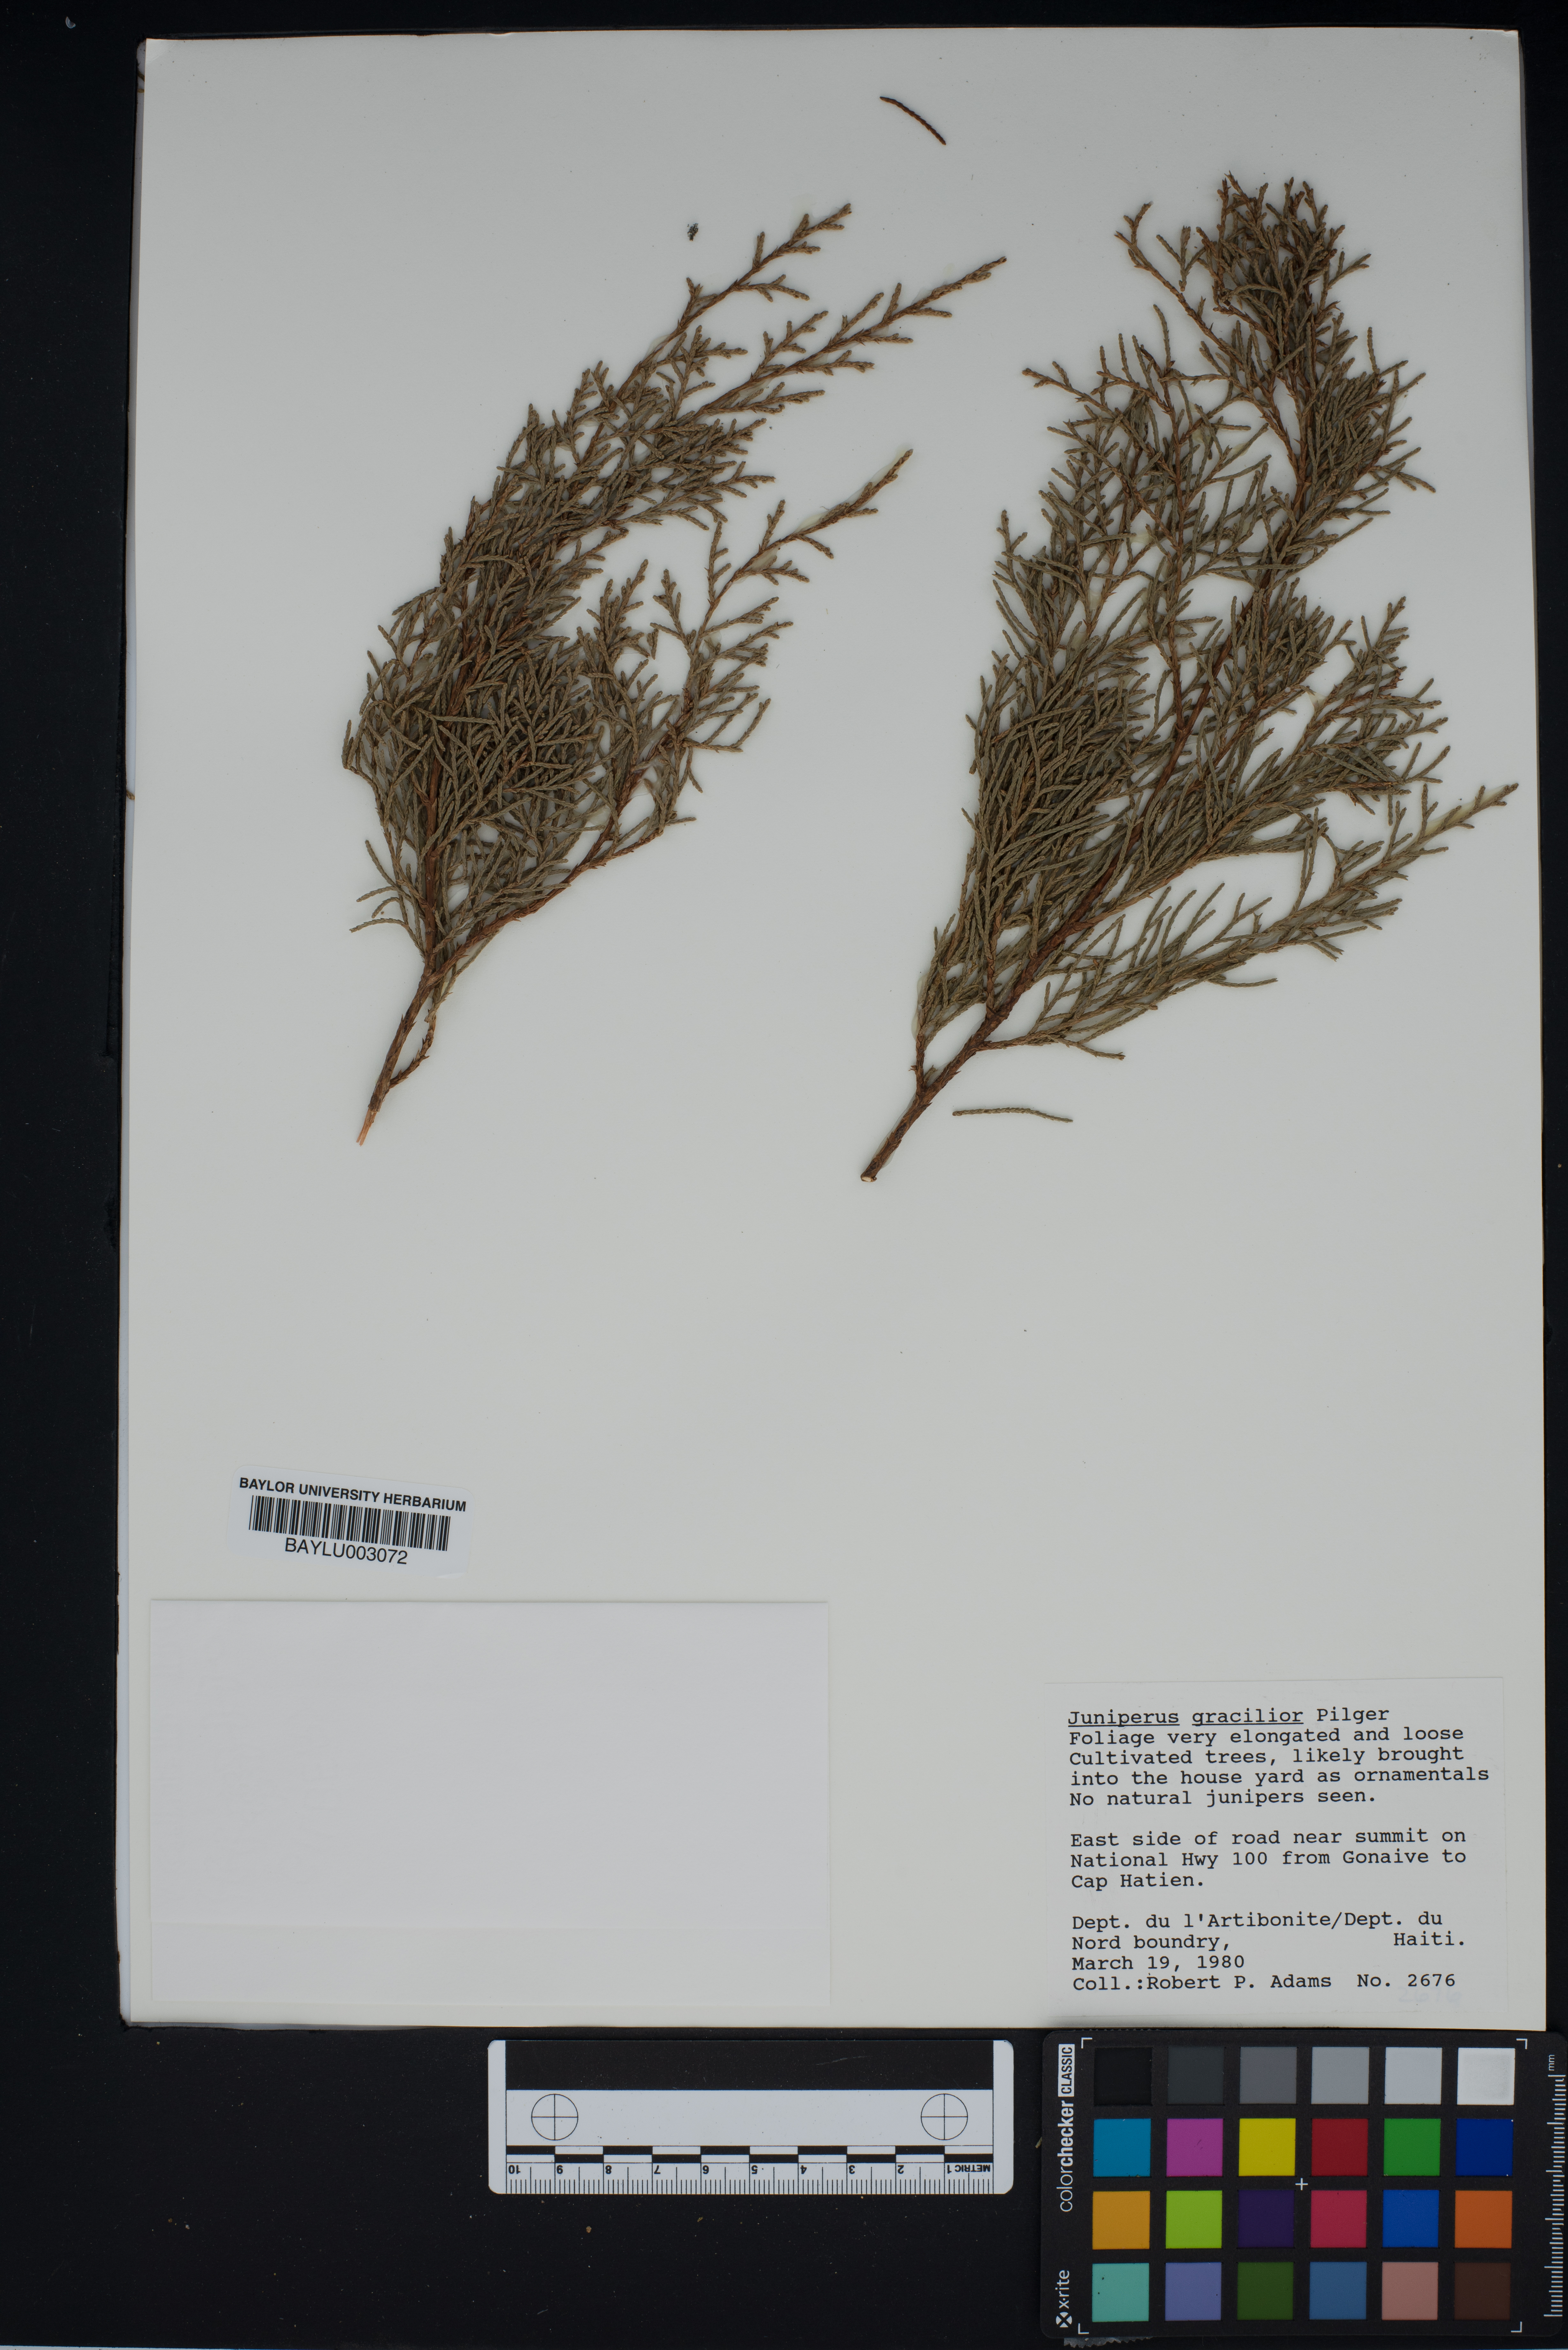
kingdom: Plantae
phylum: Tracheophyta
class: Pinopsida
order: Pinales
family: Cupressaceae
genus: Juniperus
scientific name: Juniperus gracilior
